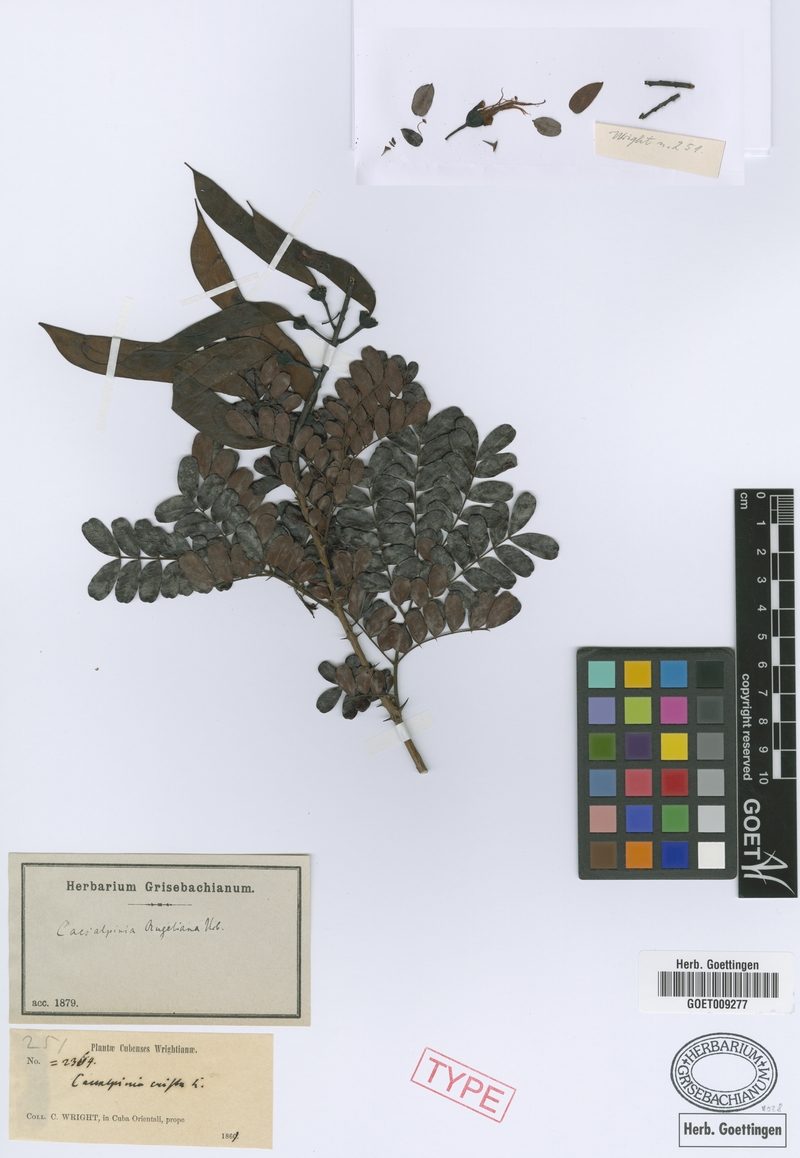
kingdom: Plantae
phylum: Tracheophyta
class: Magnoliopsida
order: Fabales
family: Fabaceae
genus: Caesalpinia
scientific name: Caesalpinia bahamensis
